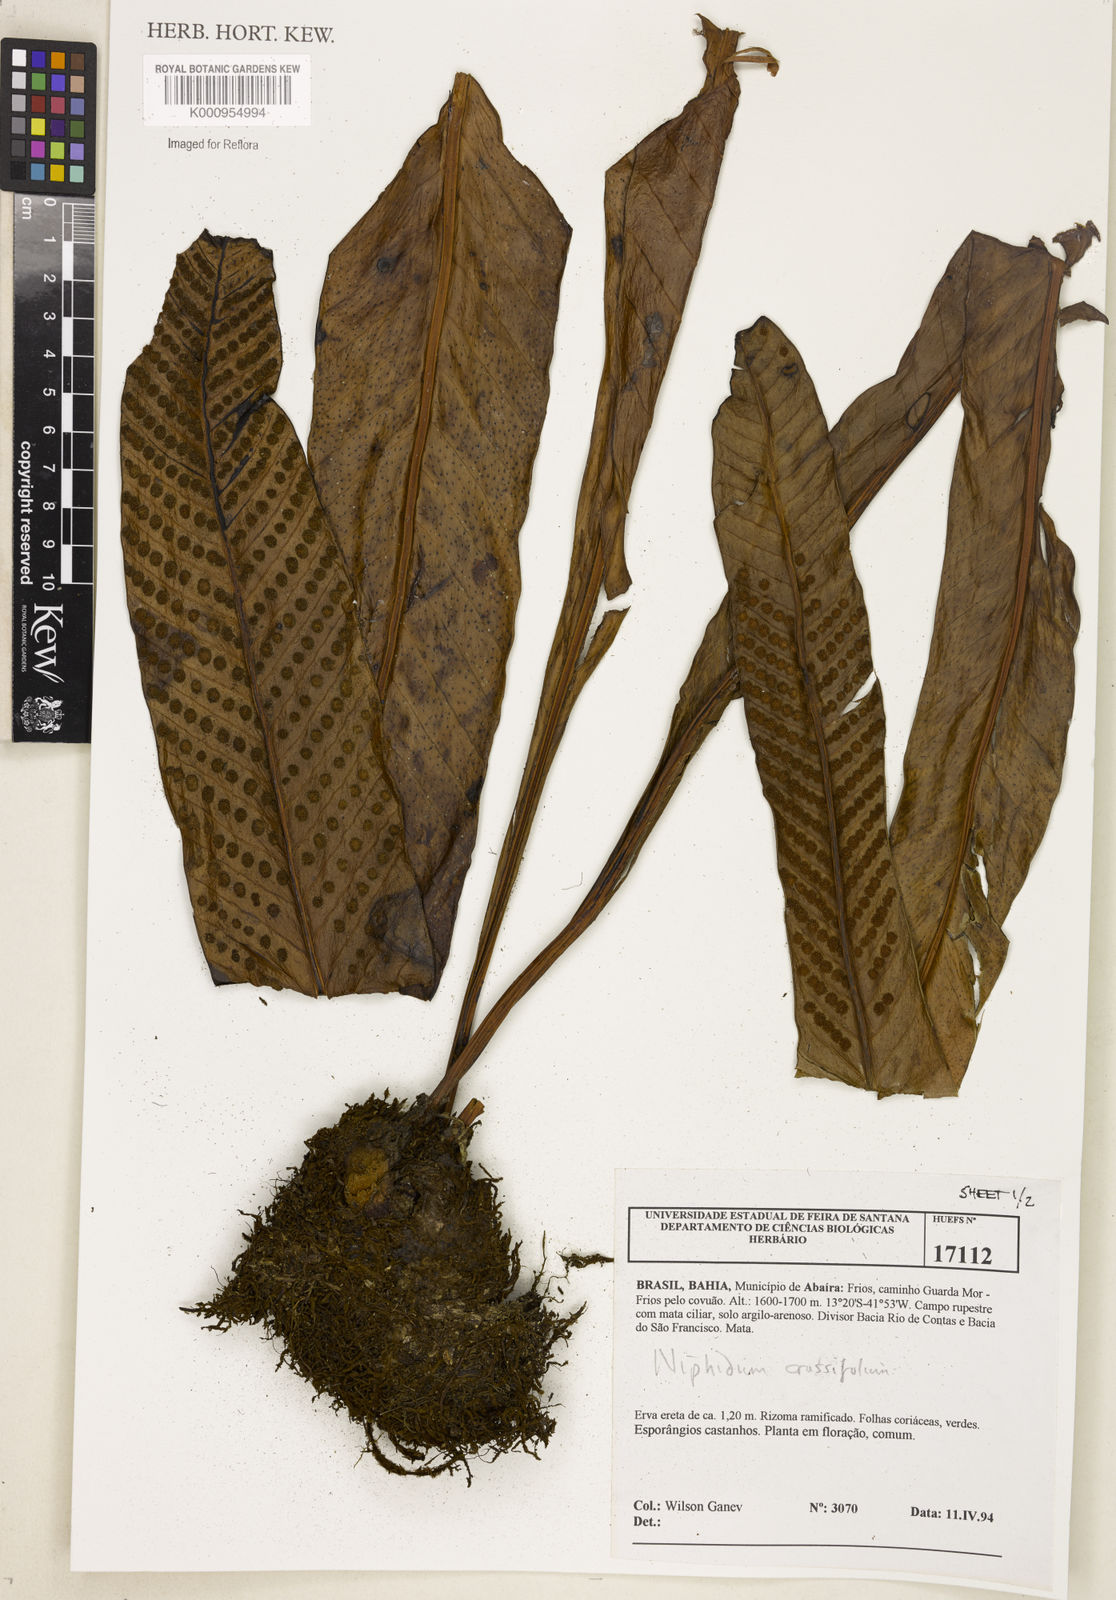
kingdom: Plantae
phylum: Tracheophyta
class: Polypodiopsida
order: Polypodiales
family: Polypodiaceae
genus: Niphidium
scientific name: Niphidium crassifolium
